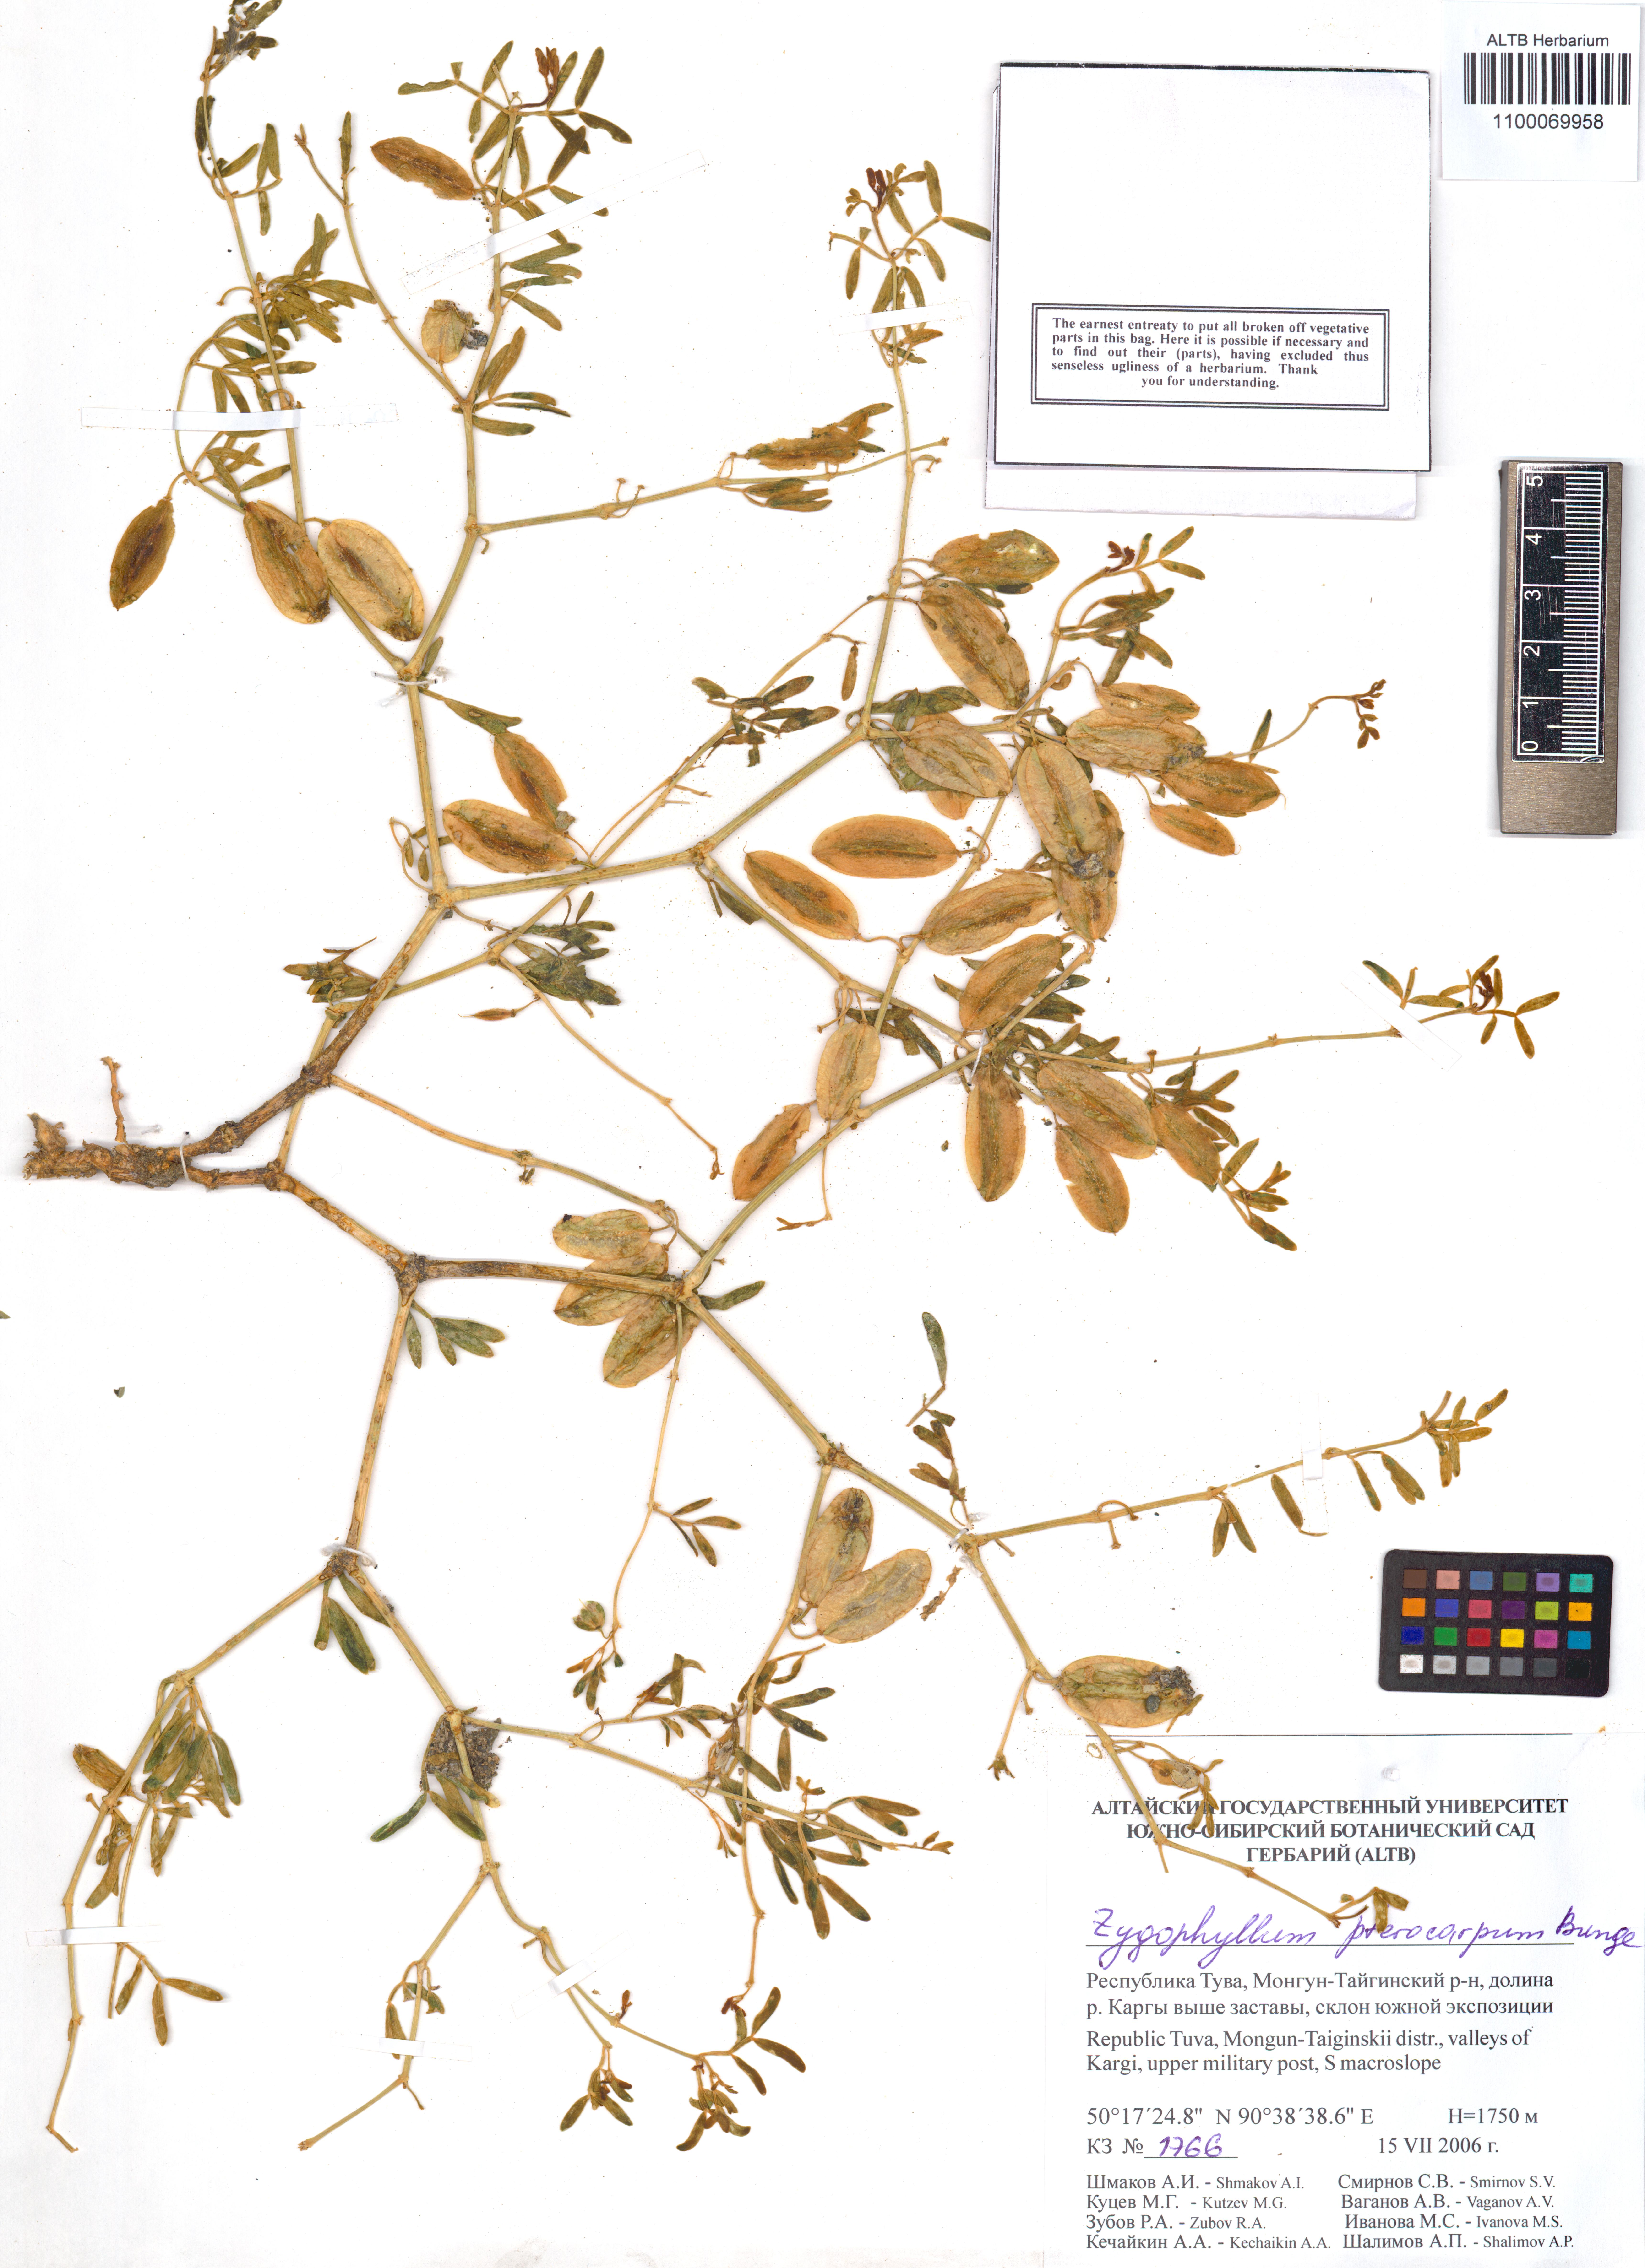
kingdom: Plantae
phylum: Tracheophyta
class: Magnoliopsida
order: Zygophyllales
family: Zygophyllaceae
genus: Zygophyllum
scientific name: Zygophyllum pterocarpum
